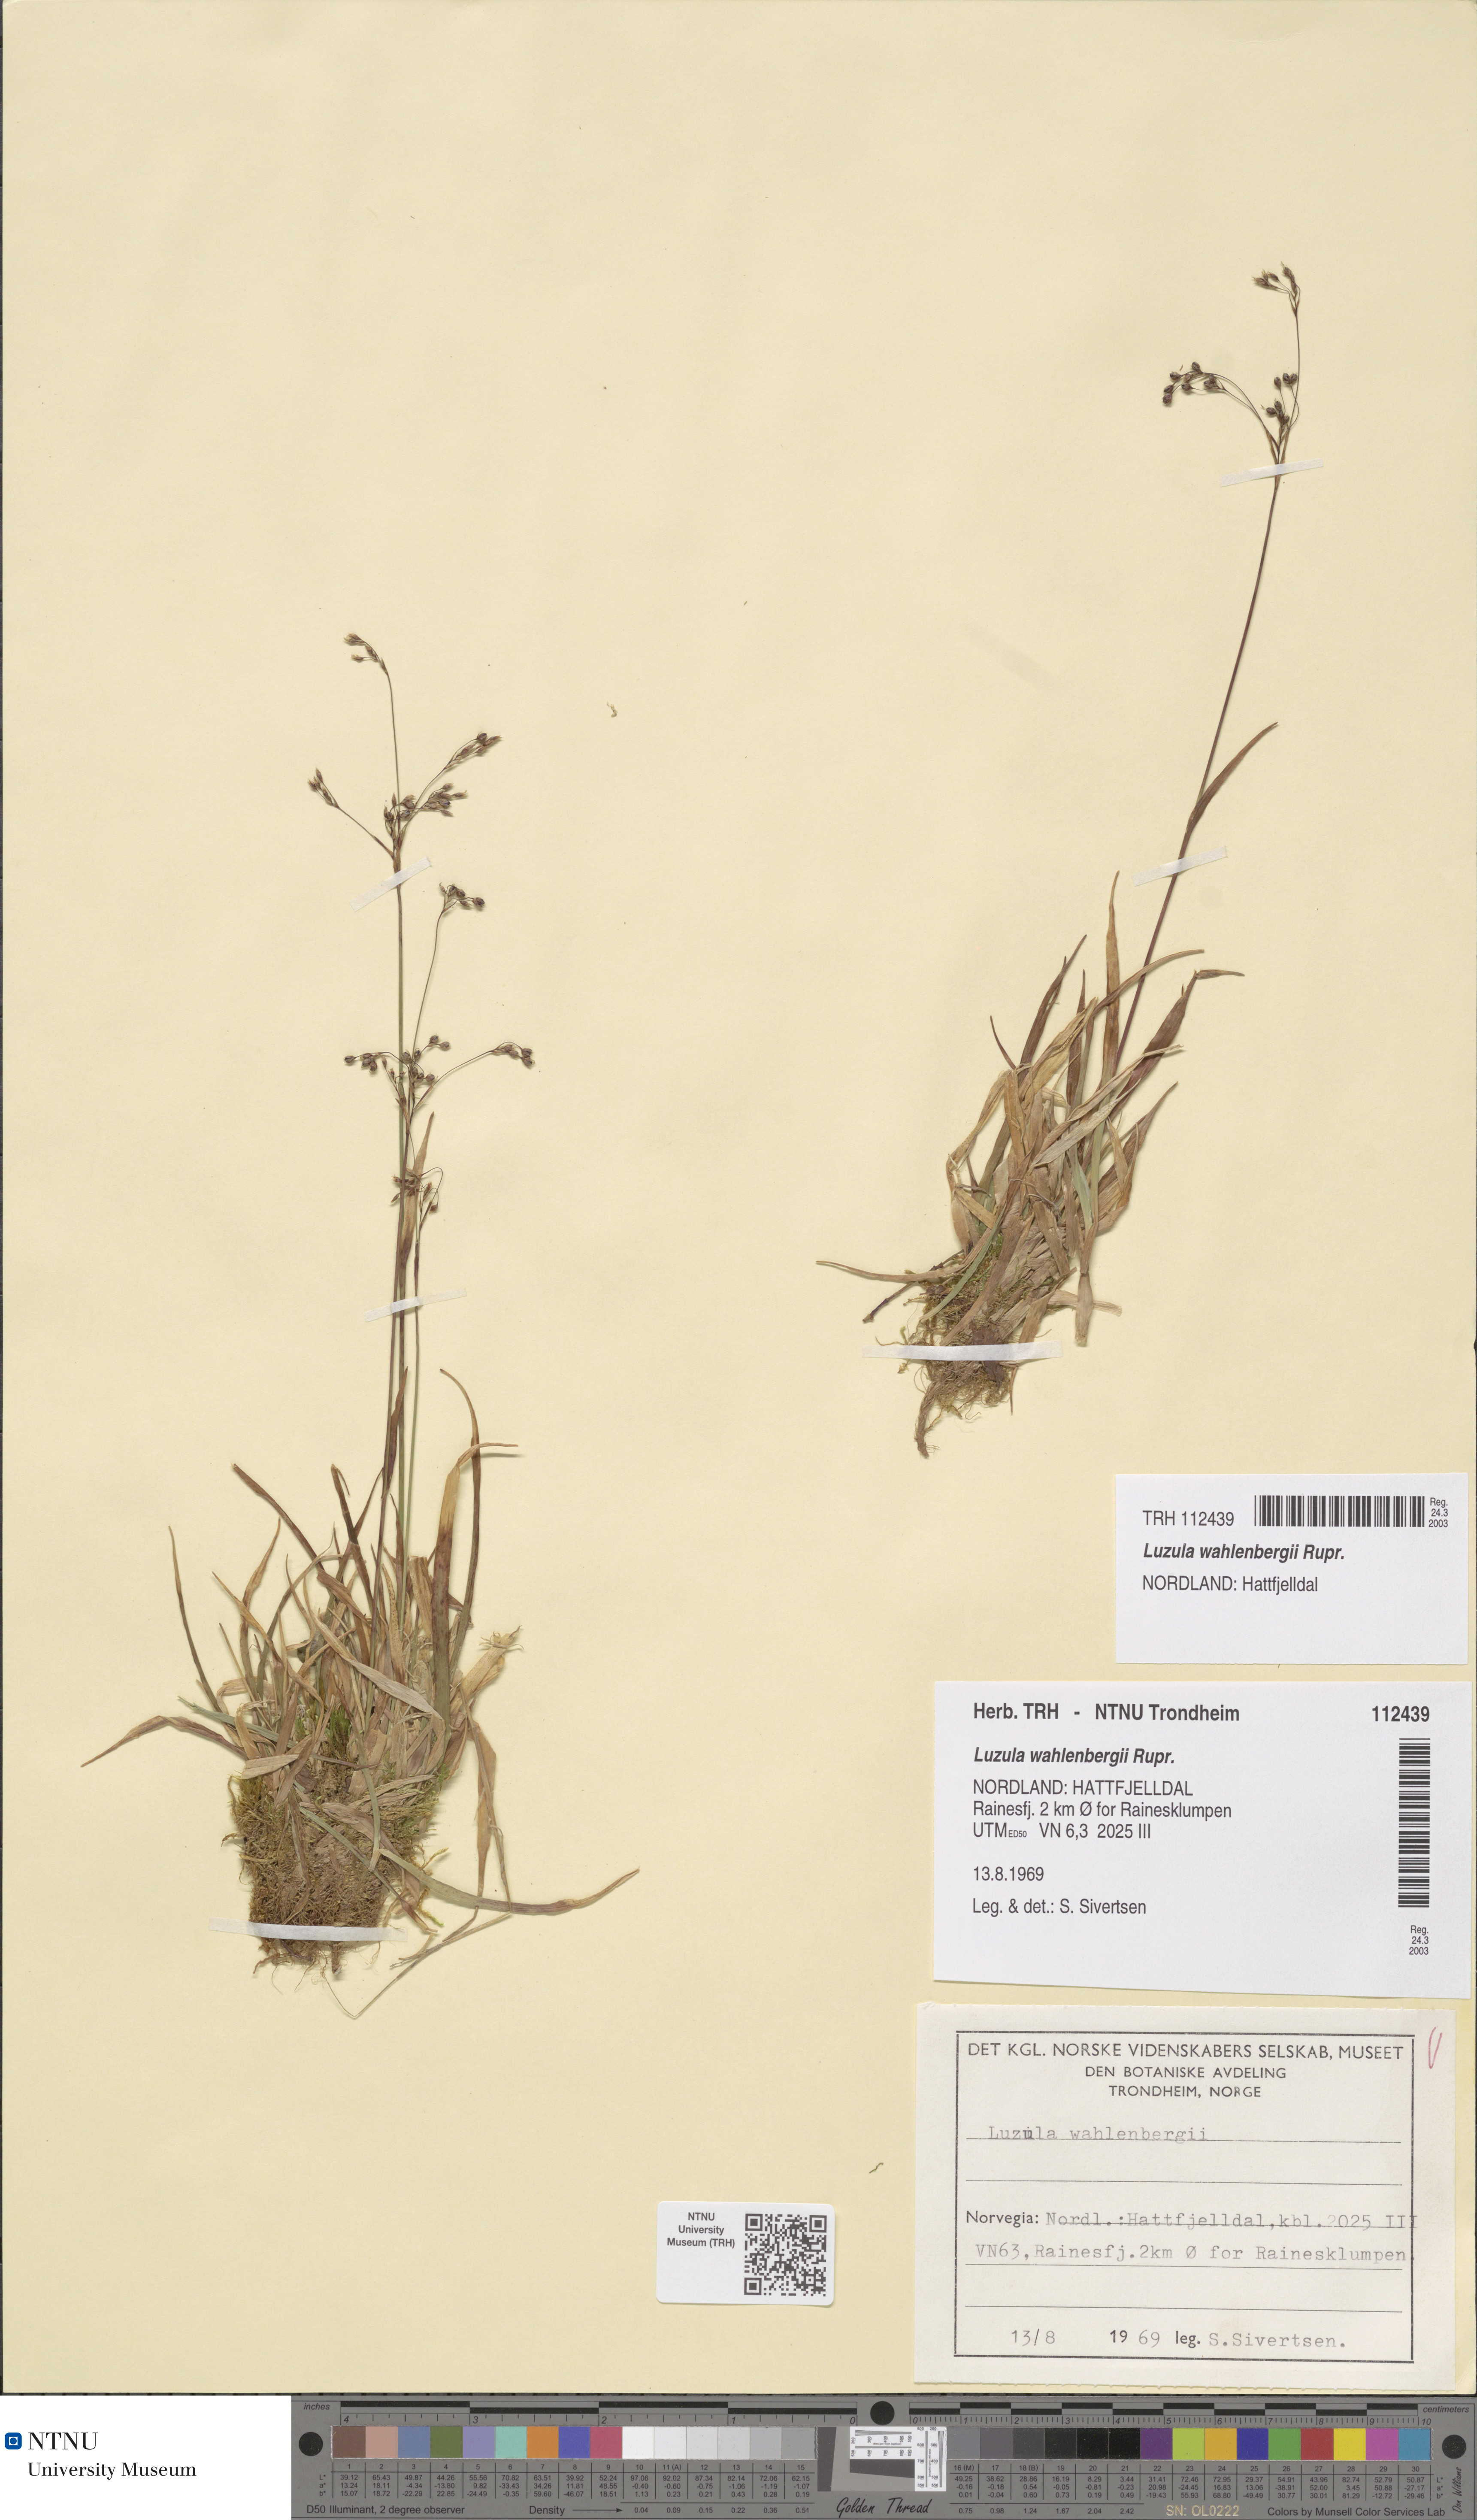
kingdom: Plantae
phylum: Tracheophyta
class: Liliopsida
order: Poales
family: Juncaceae
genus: Luzula
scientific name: Luzula wahlenbergii
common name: Wahlenberg's wood-rush
